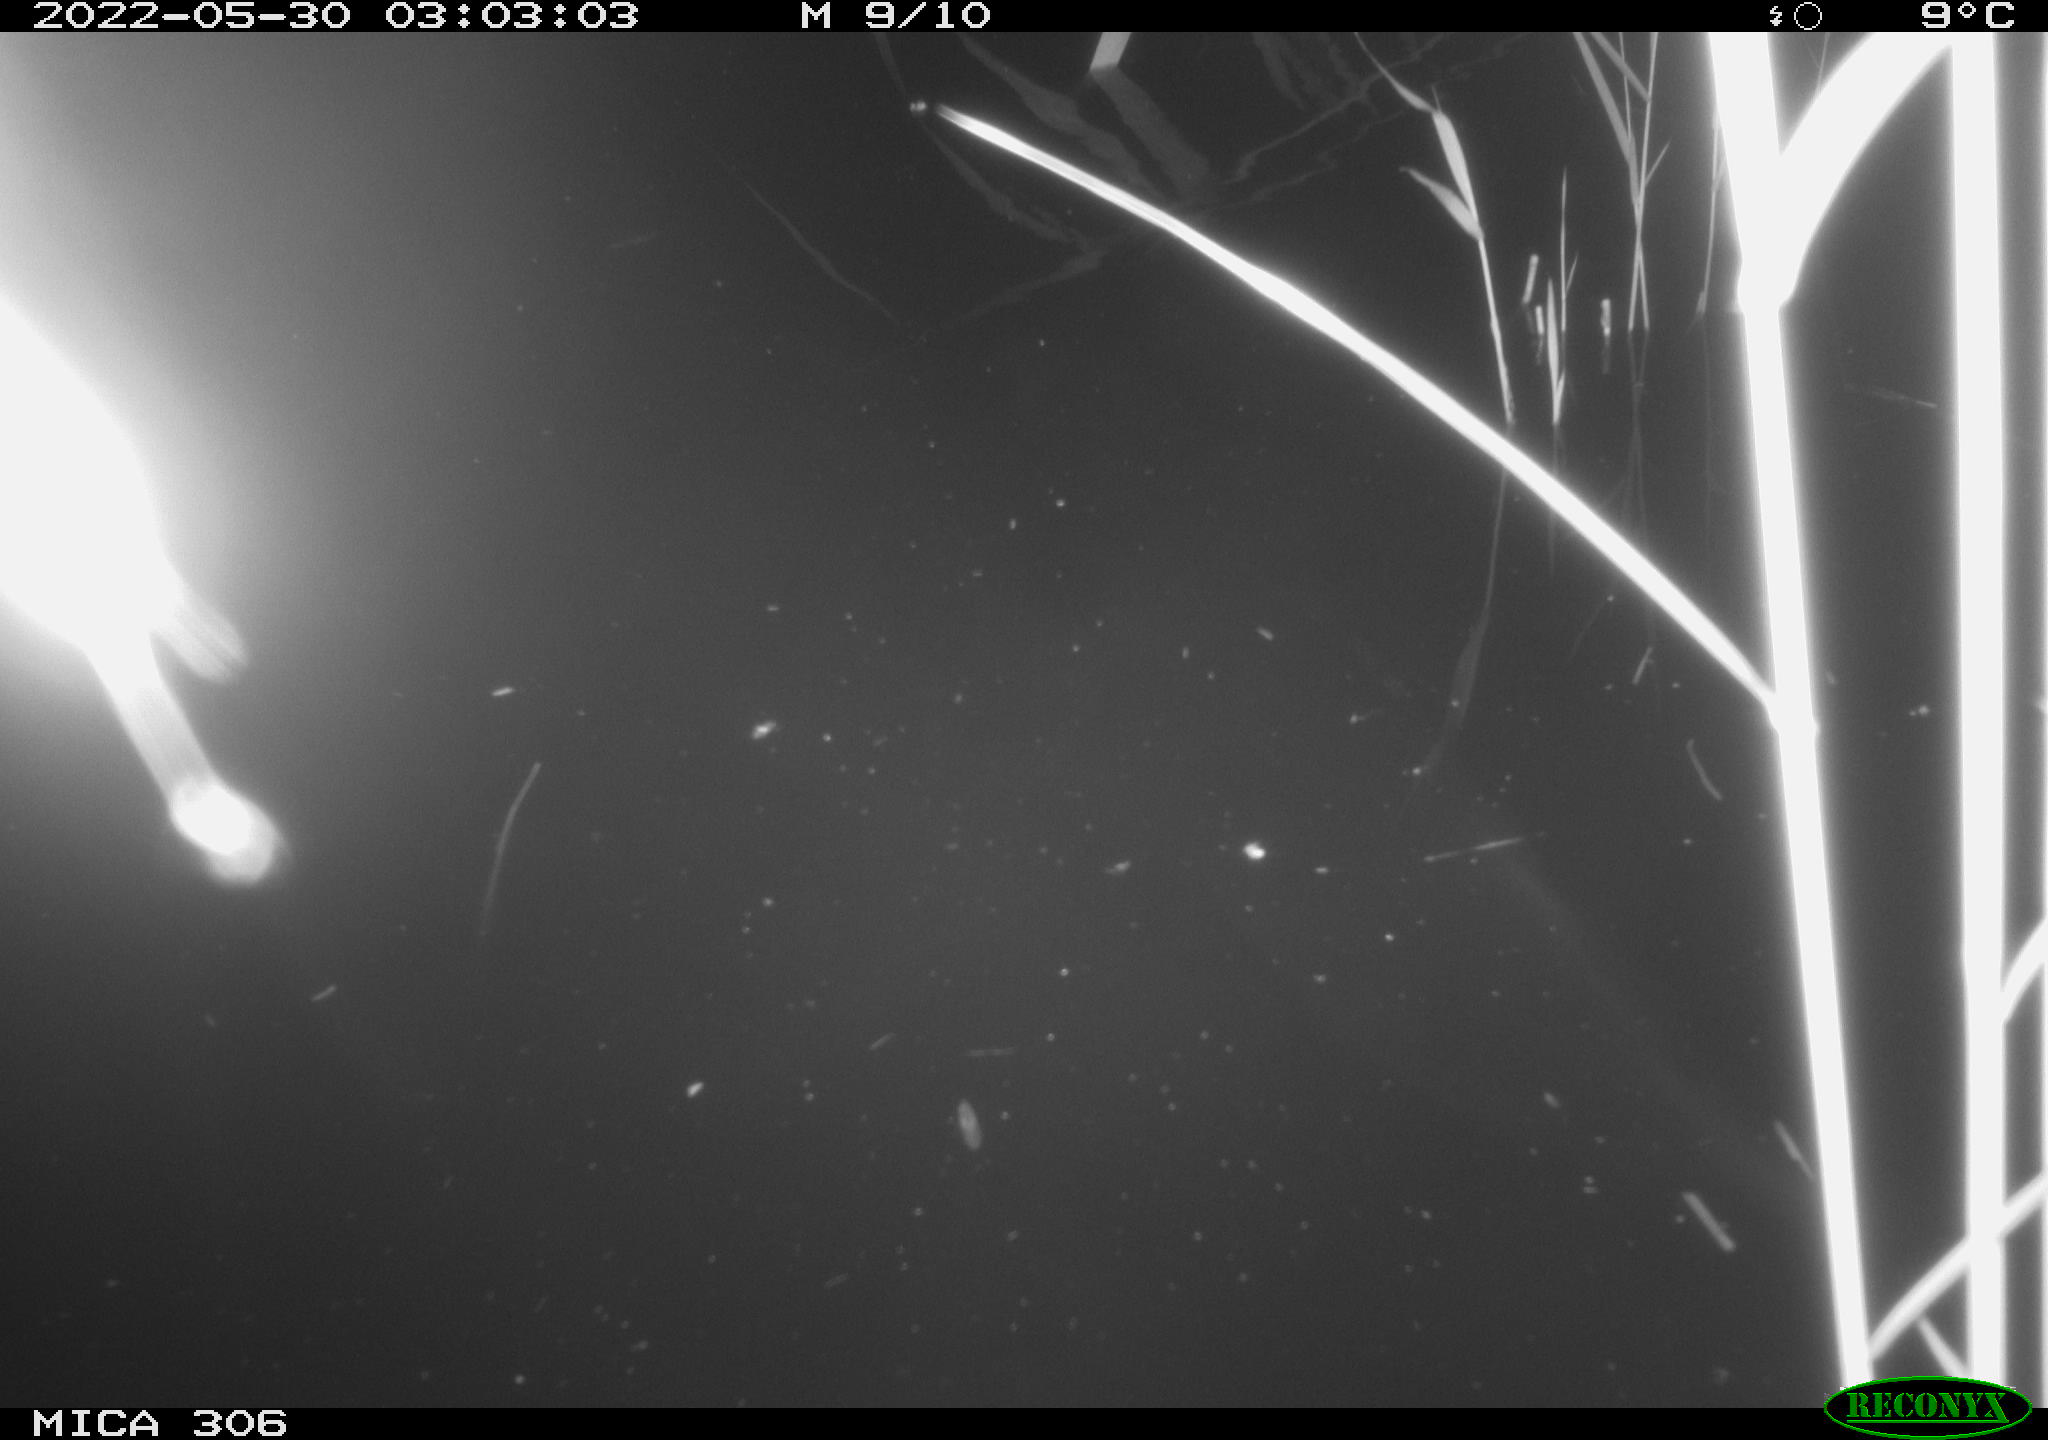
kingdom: Animalia
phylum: Chordata
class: Mammalia
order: Rodentia
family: Muridae
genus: Rattus
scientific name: Rattus norvegicus
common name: Brown rat
